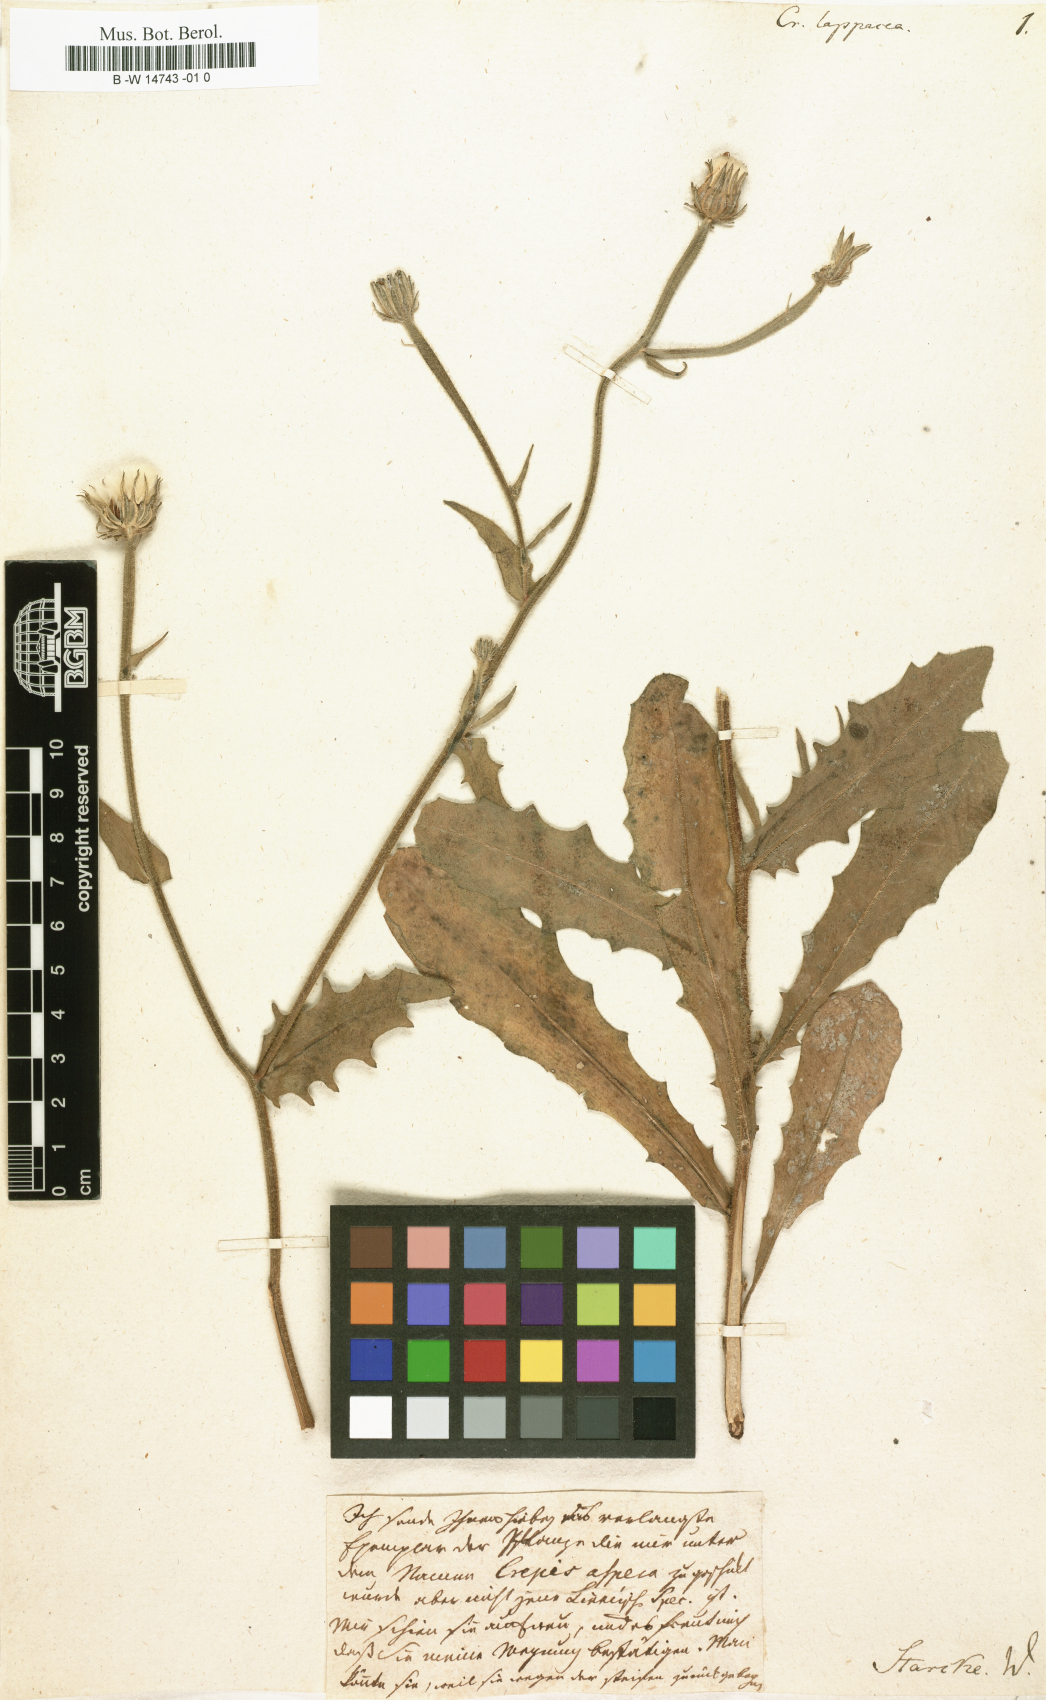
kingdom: Plantae
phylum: Tracheophyta
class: Magnoliopsida
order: Asterales
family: Asteraceae
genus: Picris
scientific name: Picris
